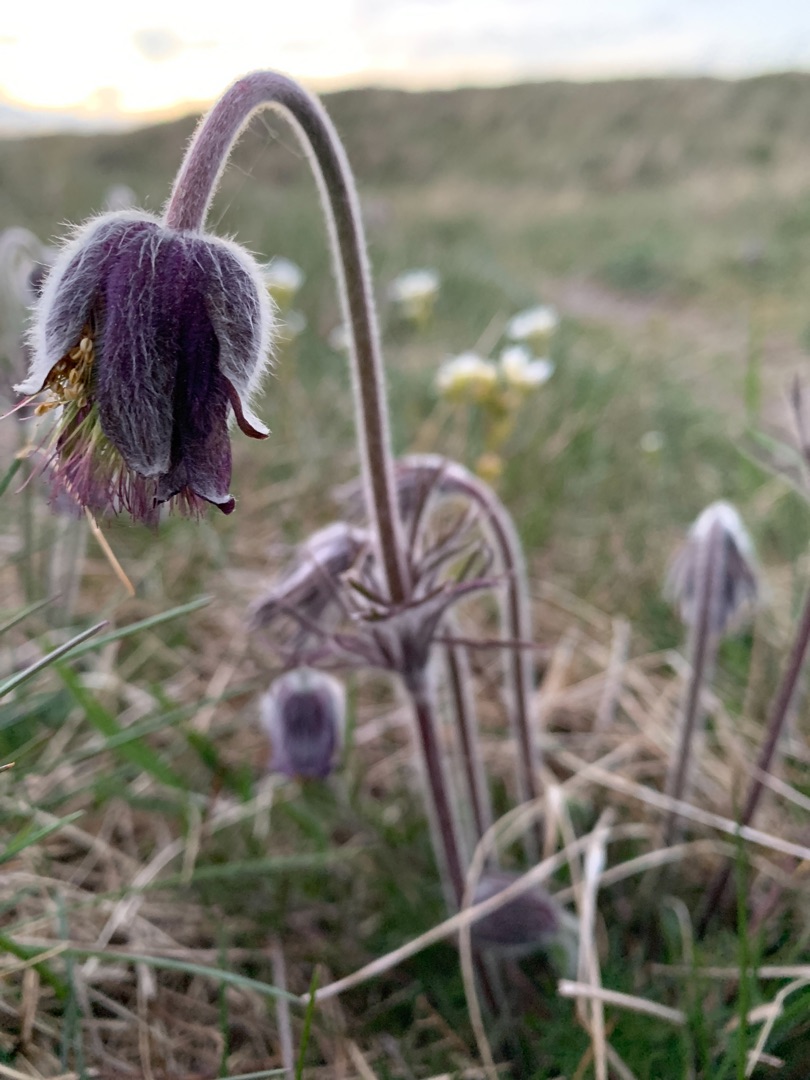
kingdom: Plantae
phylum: Tracheophyta
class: Magnoliopsida
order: Ranunculales
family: Ranunculaceae
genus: Pulsatilla
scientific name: Pulsatilla pratensis
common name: Nikkende kobjælde
